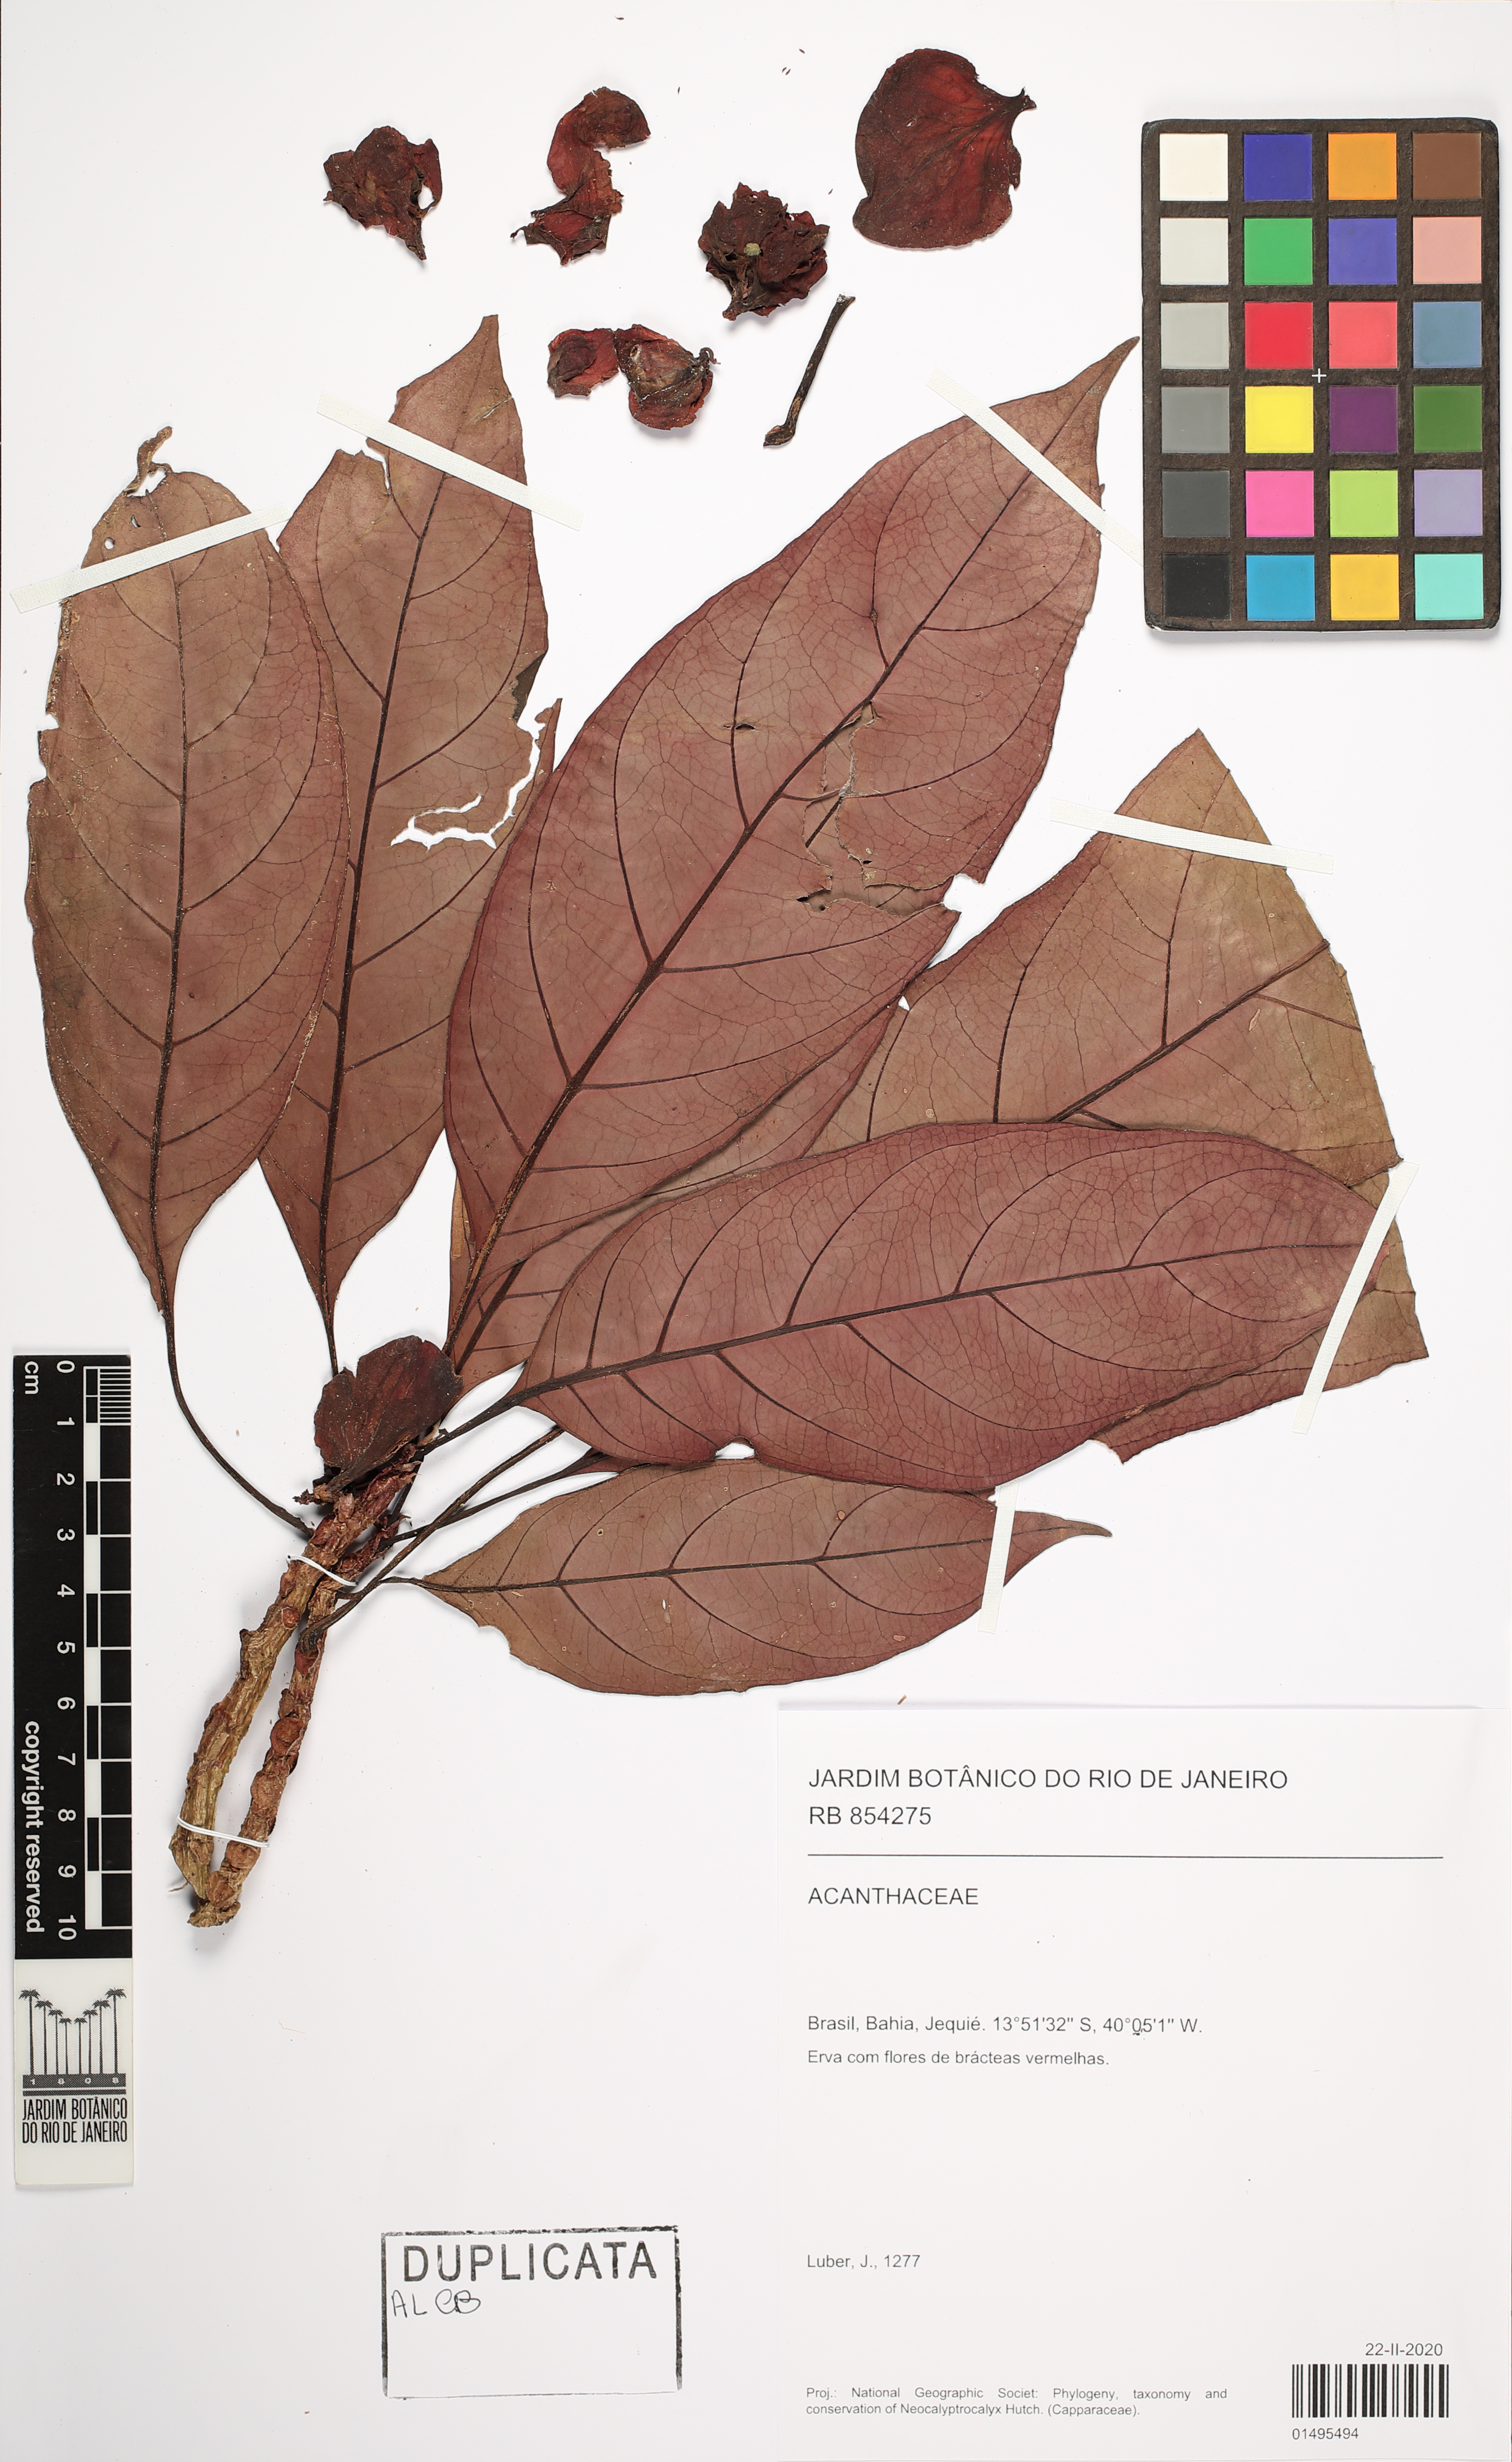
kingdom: Plantae
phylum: Tracheophyta
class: Magnoliopsida
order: Lamiales
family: Acanthaceae
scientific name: Acanthaceae
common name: Acanthaceae
